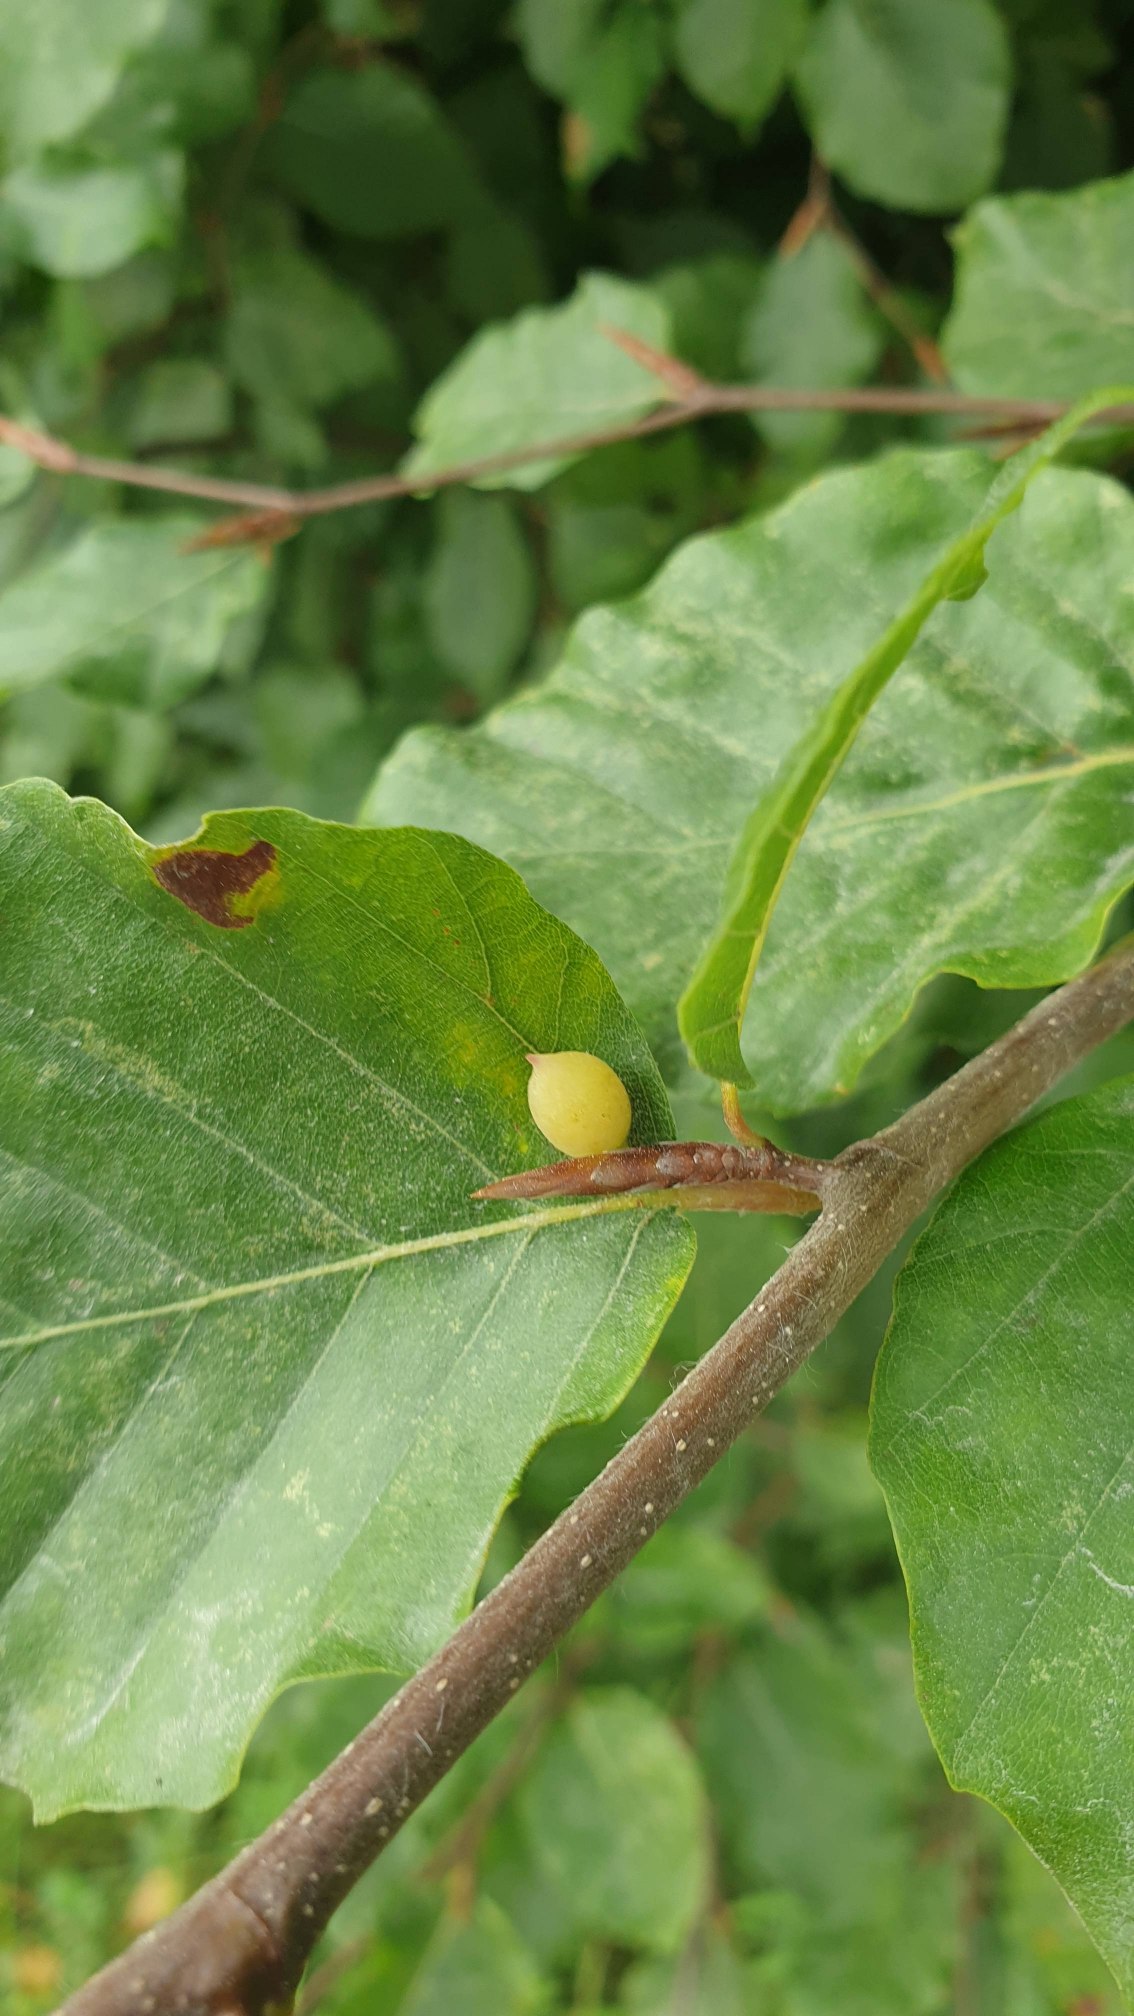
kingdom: Animalia
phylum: Arthropoda
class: Insecta
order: Diptera
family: Cecidomyiidae
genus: Mikiola
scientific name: Mikiola fagi
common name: Bøgegalmyg
